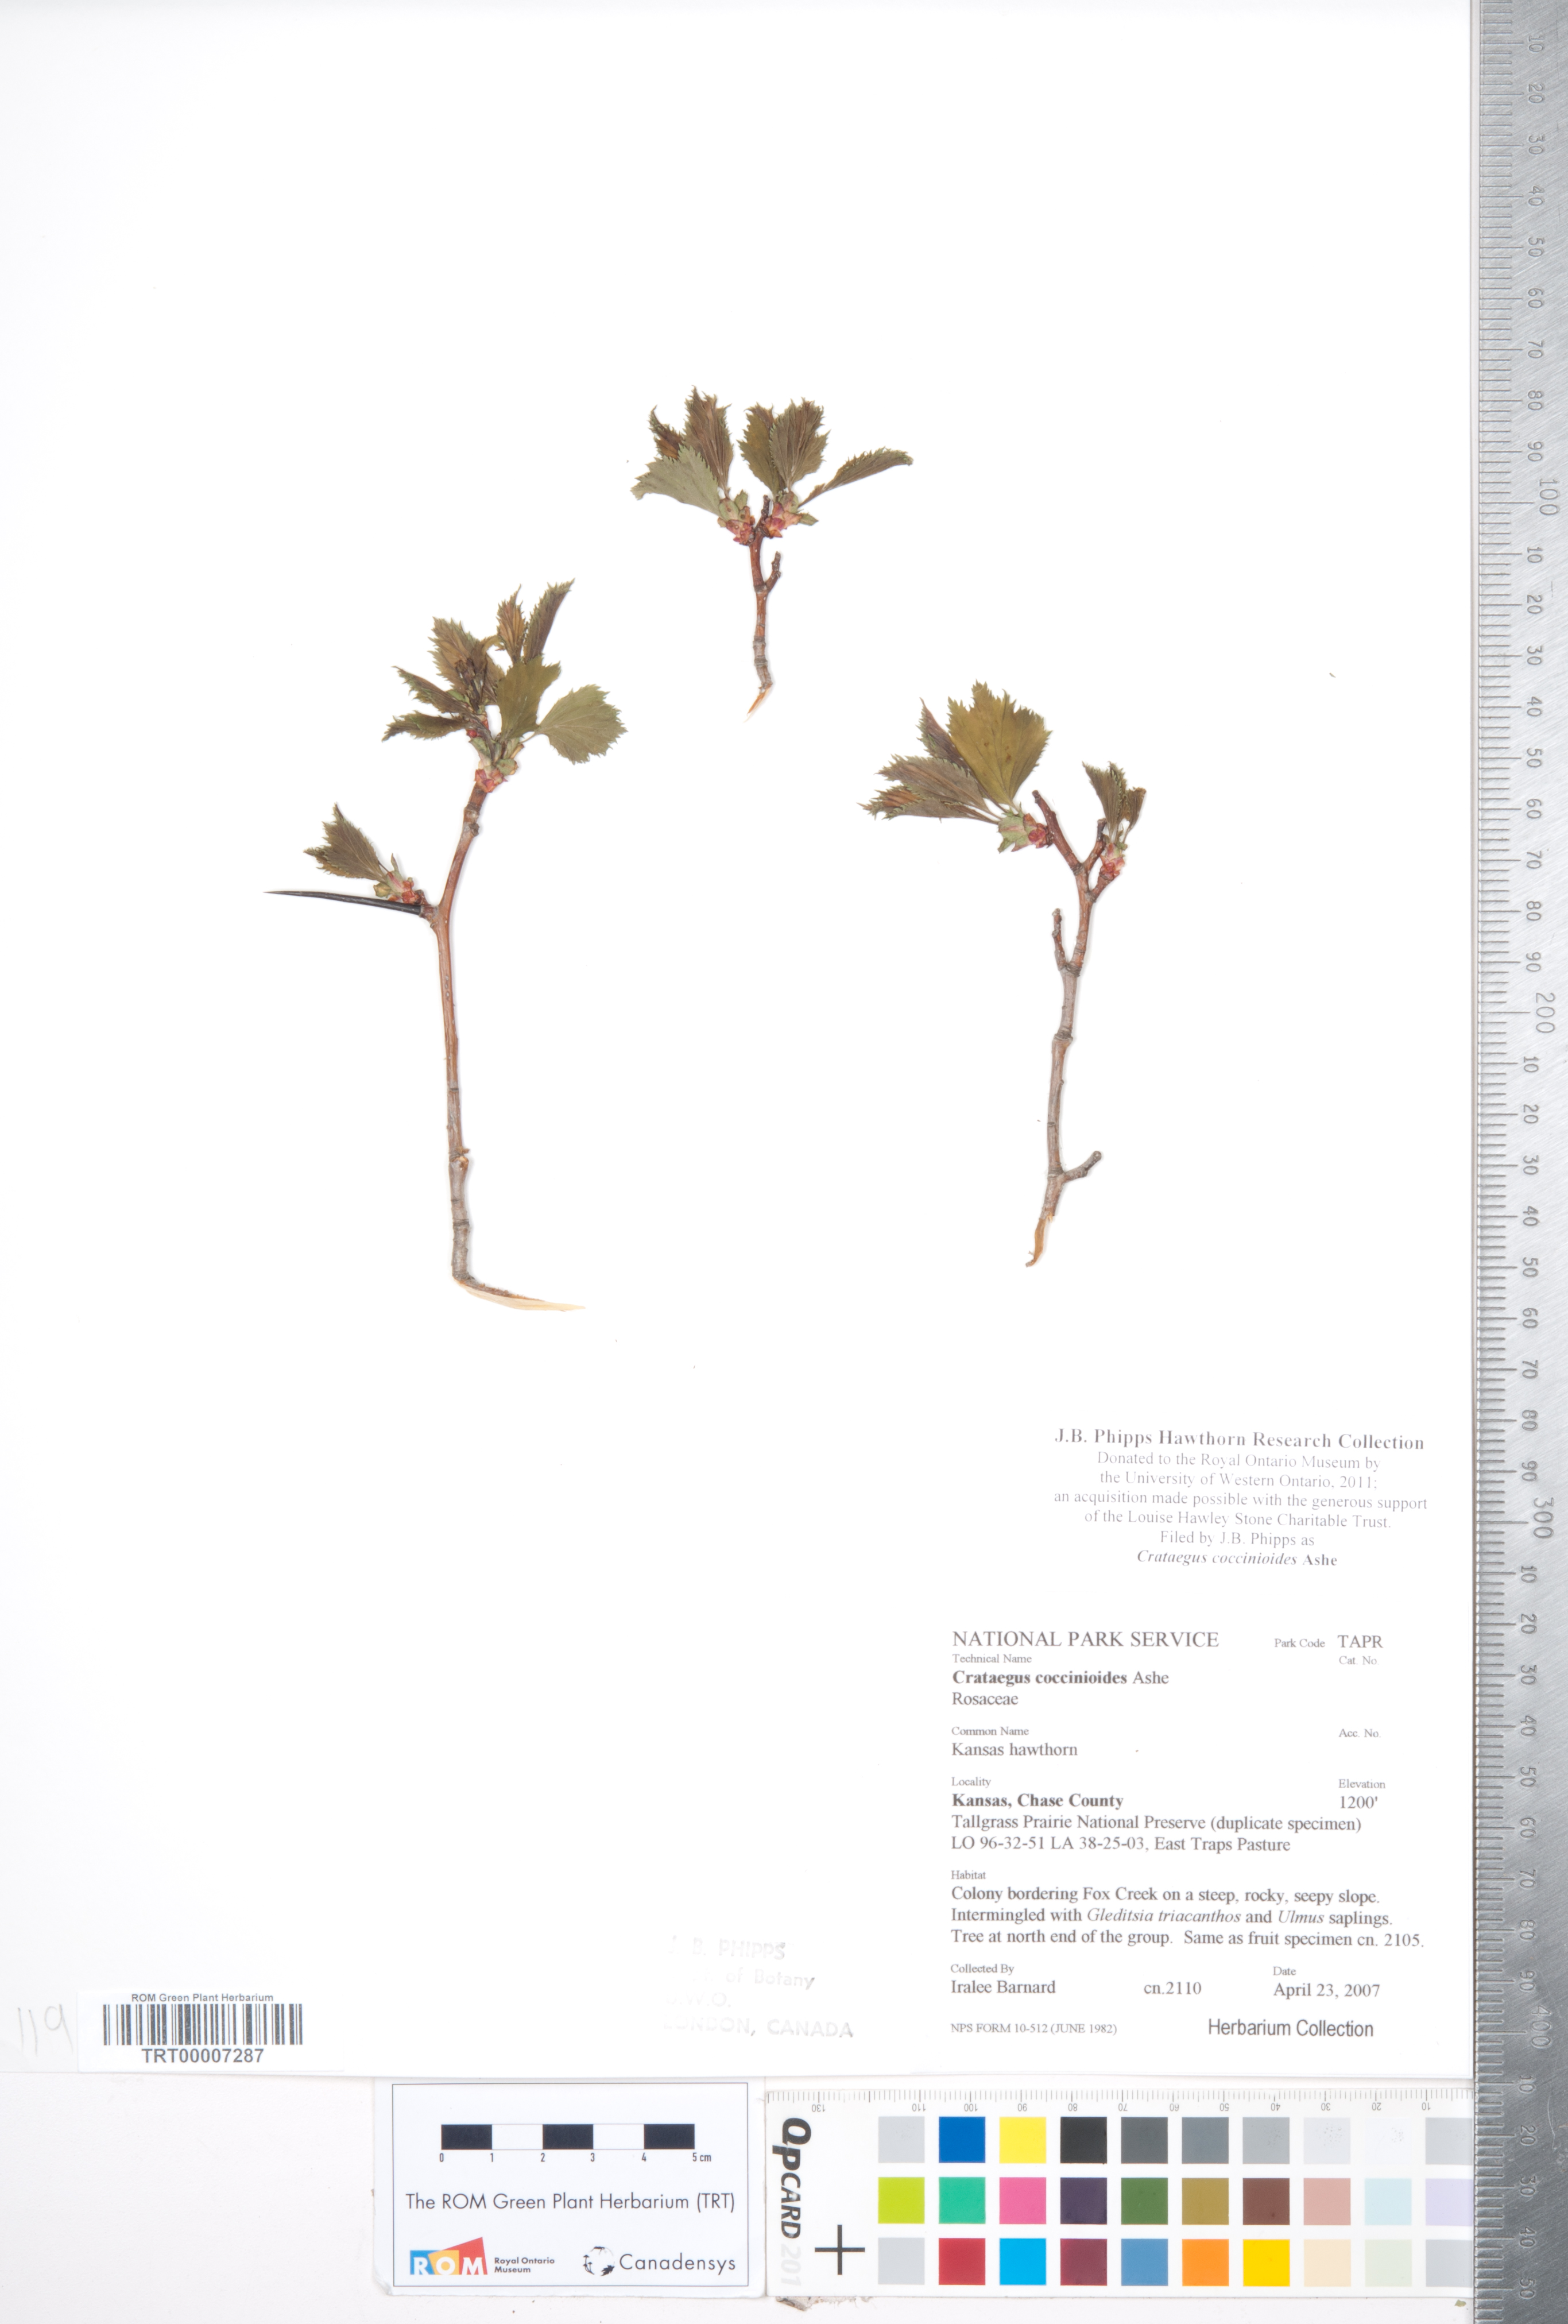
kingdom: Plantae
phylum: Tracheophyta
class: Magnoliopsida
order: Rosales
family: Rosaceae
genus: Crataegus
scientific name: Crataegus coccinioides
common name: Large-flowered cockspurthorn
